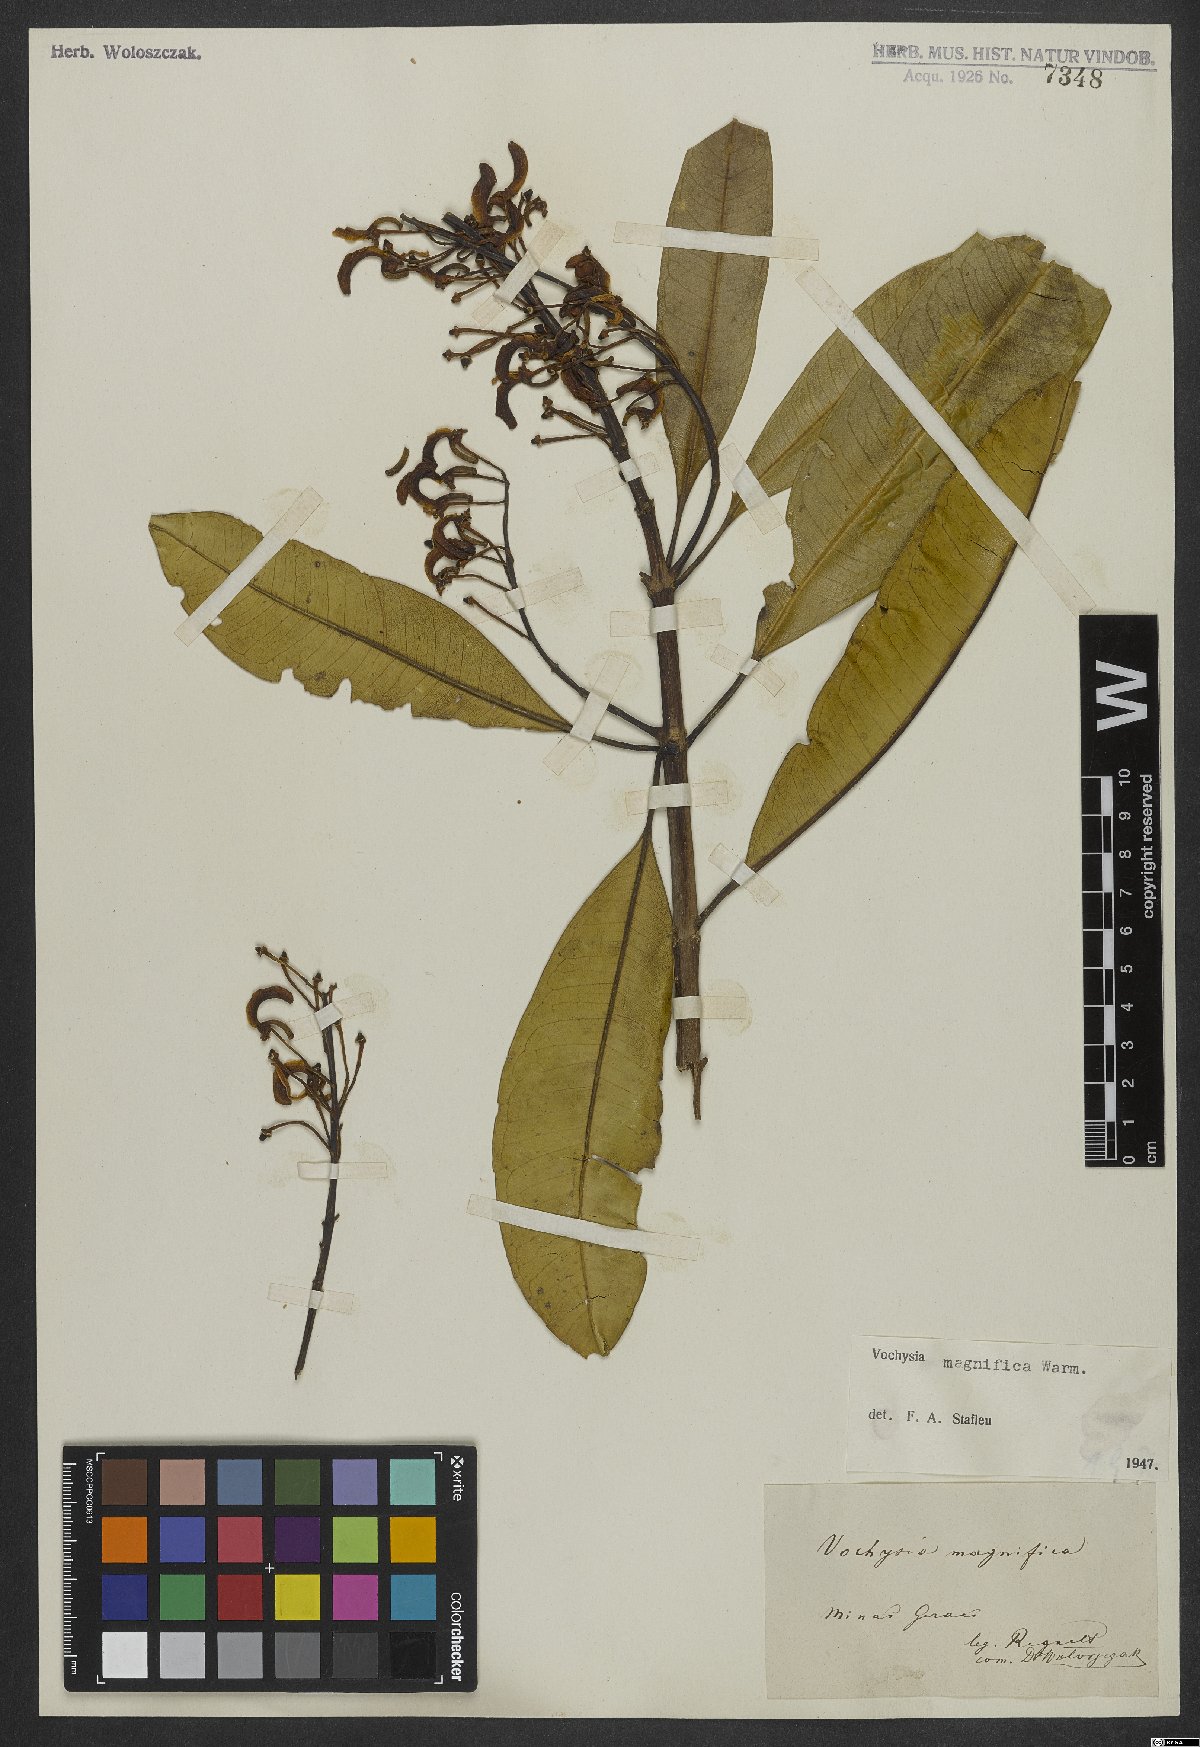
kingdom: Plantae
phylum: Tracheophyta
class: Magnoliopsida
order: Myrtales
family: Vochysiaceae
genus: Vochysia
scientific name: Vochysia magnifica
